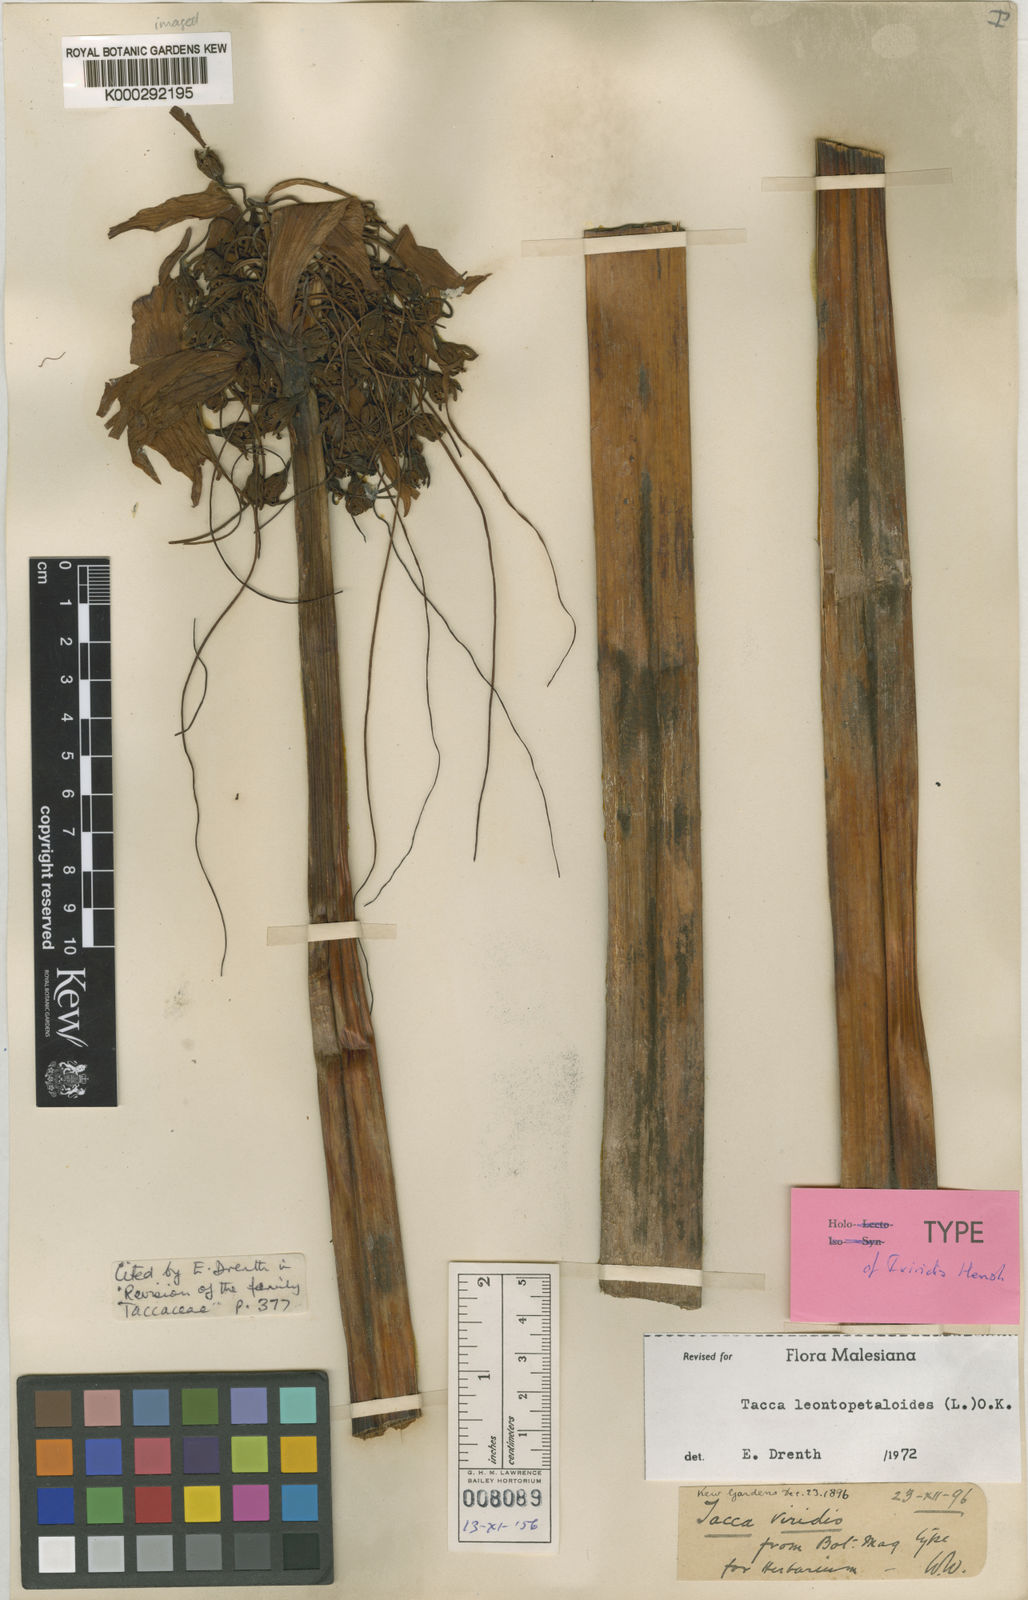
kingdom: Plantae
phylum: Tracheophyta
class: Liliopsida
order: Dioscoreales
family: Dioscoreaceae
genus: Tacca
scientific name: Tacca leontopetaloides
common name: Arrowroot
